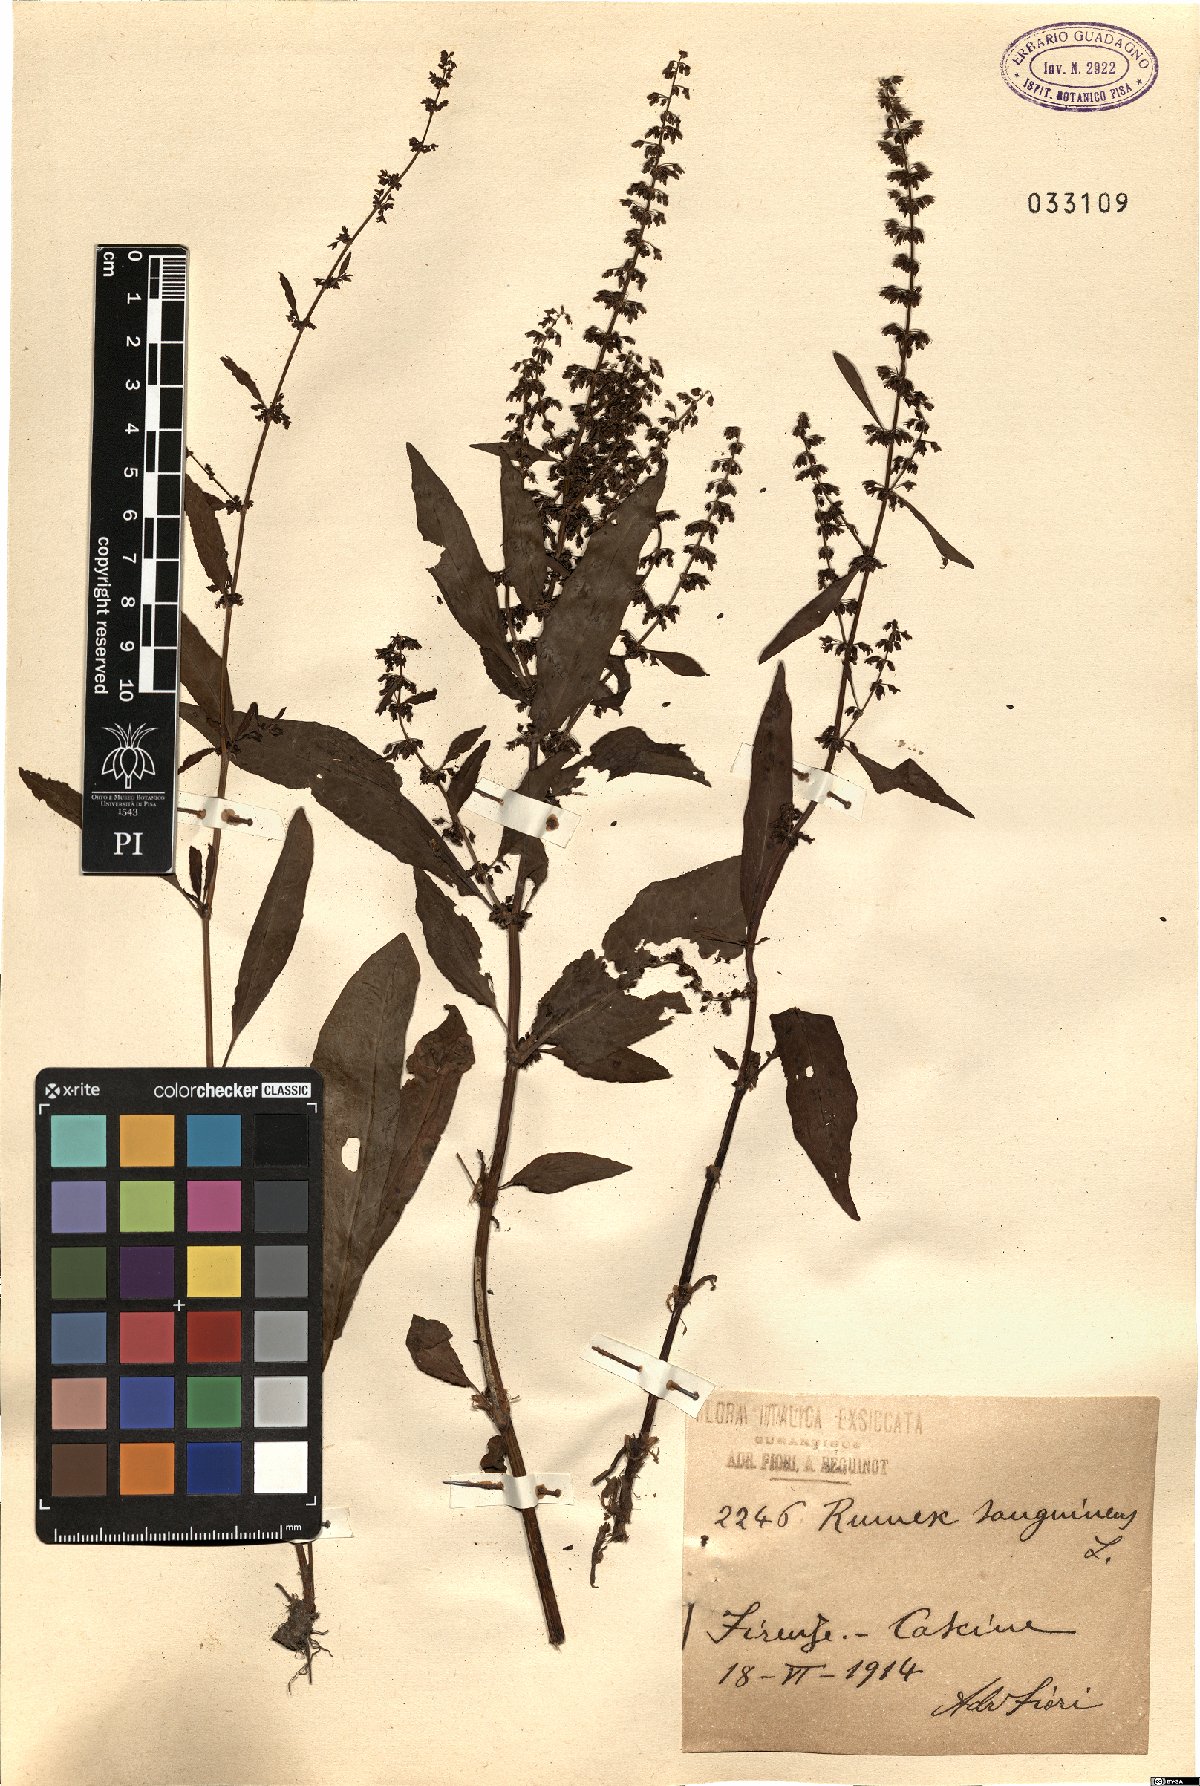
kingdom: Plantae
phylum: Tracheophyta
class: Magnoliopsida
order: Caryophyllales
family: Polygonaceae
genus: Rumex
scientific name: Rumex sanguineus
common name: Wood dock
